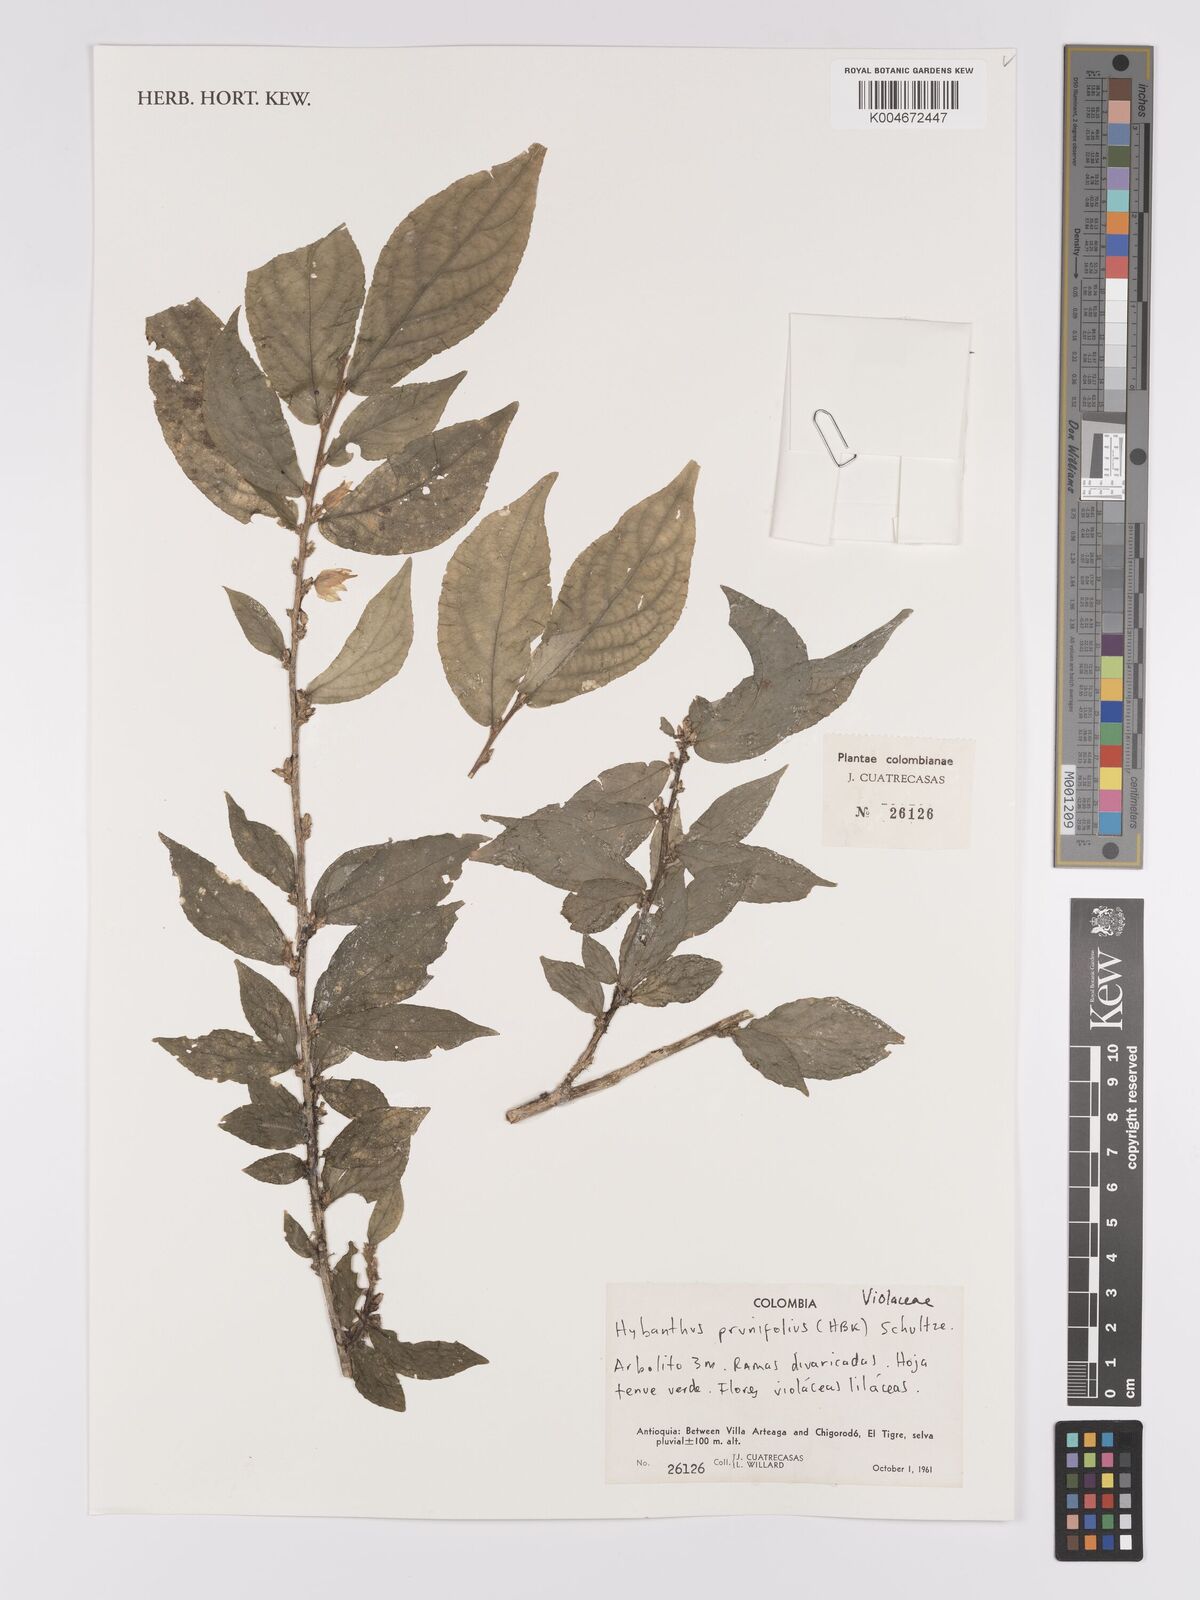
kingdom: Plantae
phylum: Tracheophyta
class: Magnoliopsida
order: Malpighiales
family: Violaceae
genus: Pombalia
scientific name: Pombalia prunifolia
